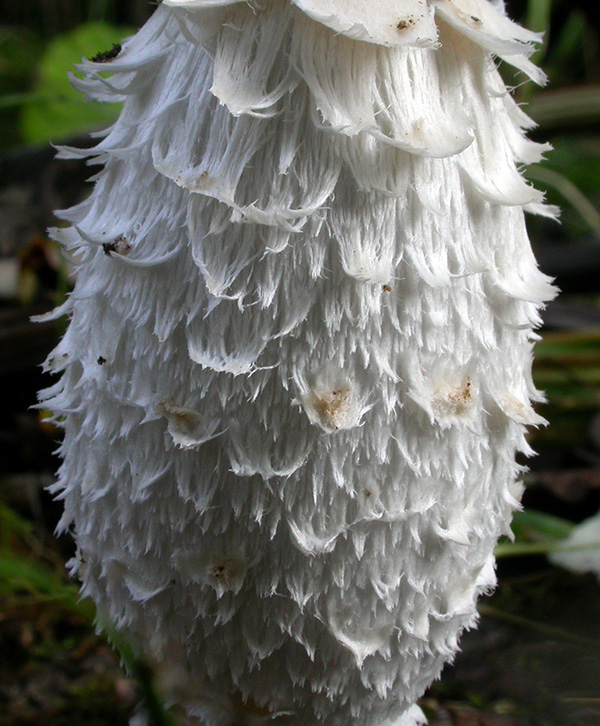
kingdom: Fungi
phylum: Basidiomycota
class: Agaricomycetes
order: Agaricales
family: Agaricaceae
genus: Coprinus
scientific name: Coprinus comatus
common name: stor parykhat
